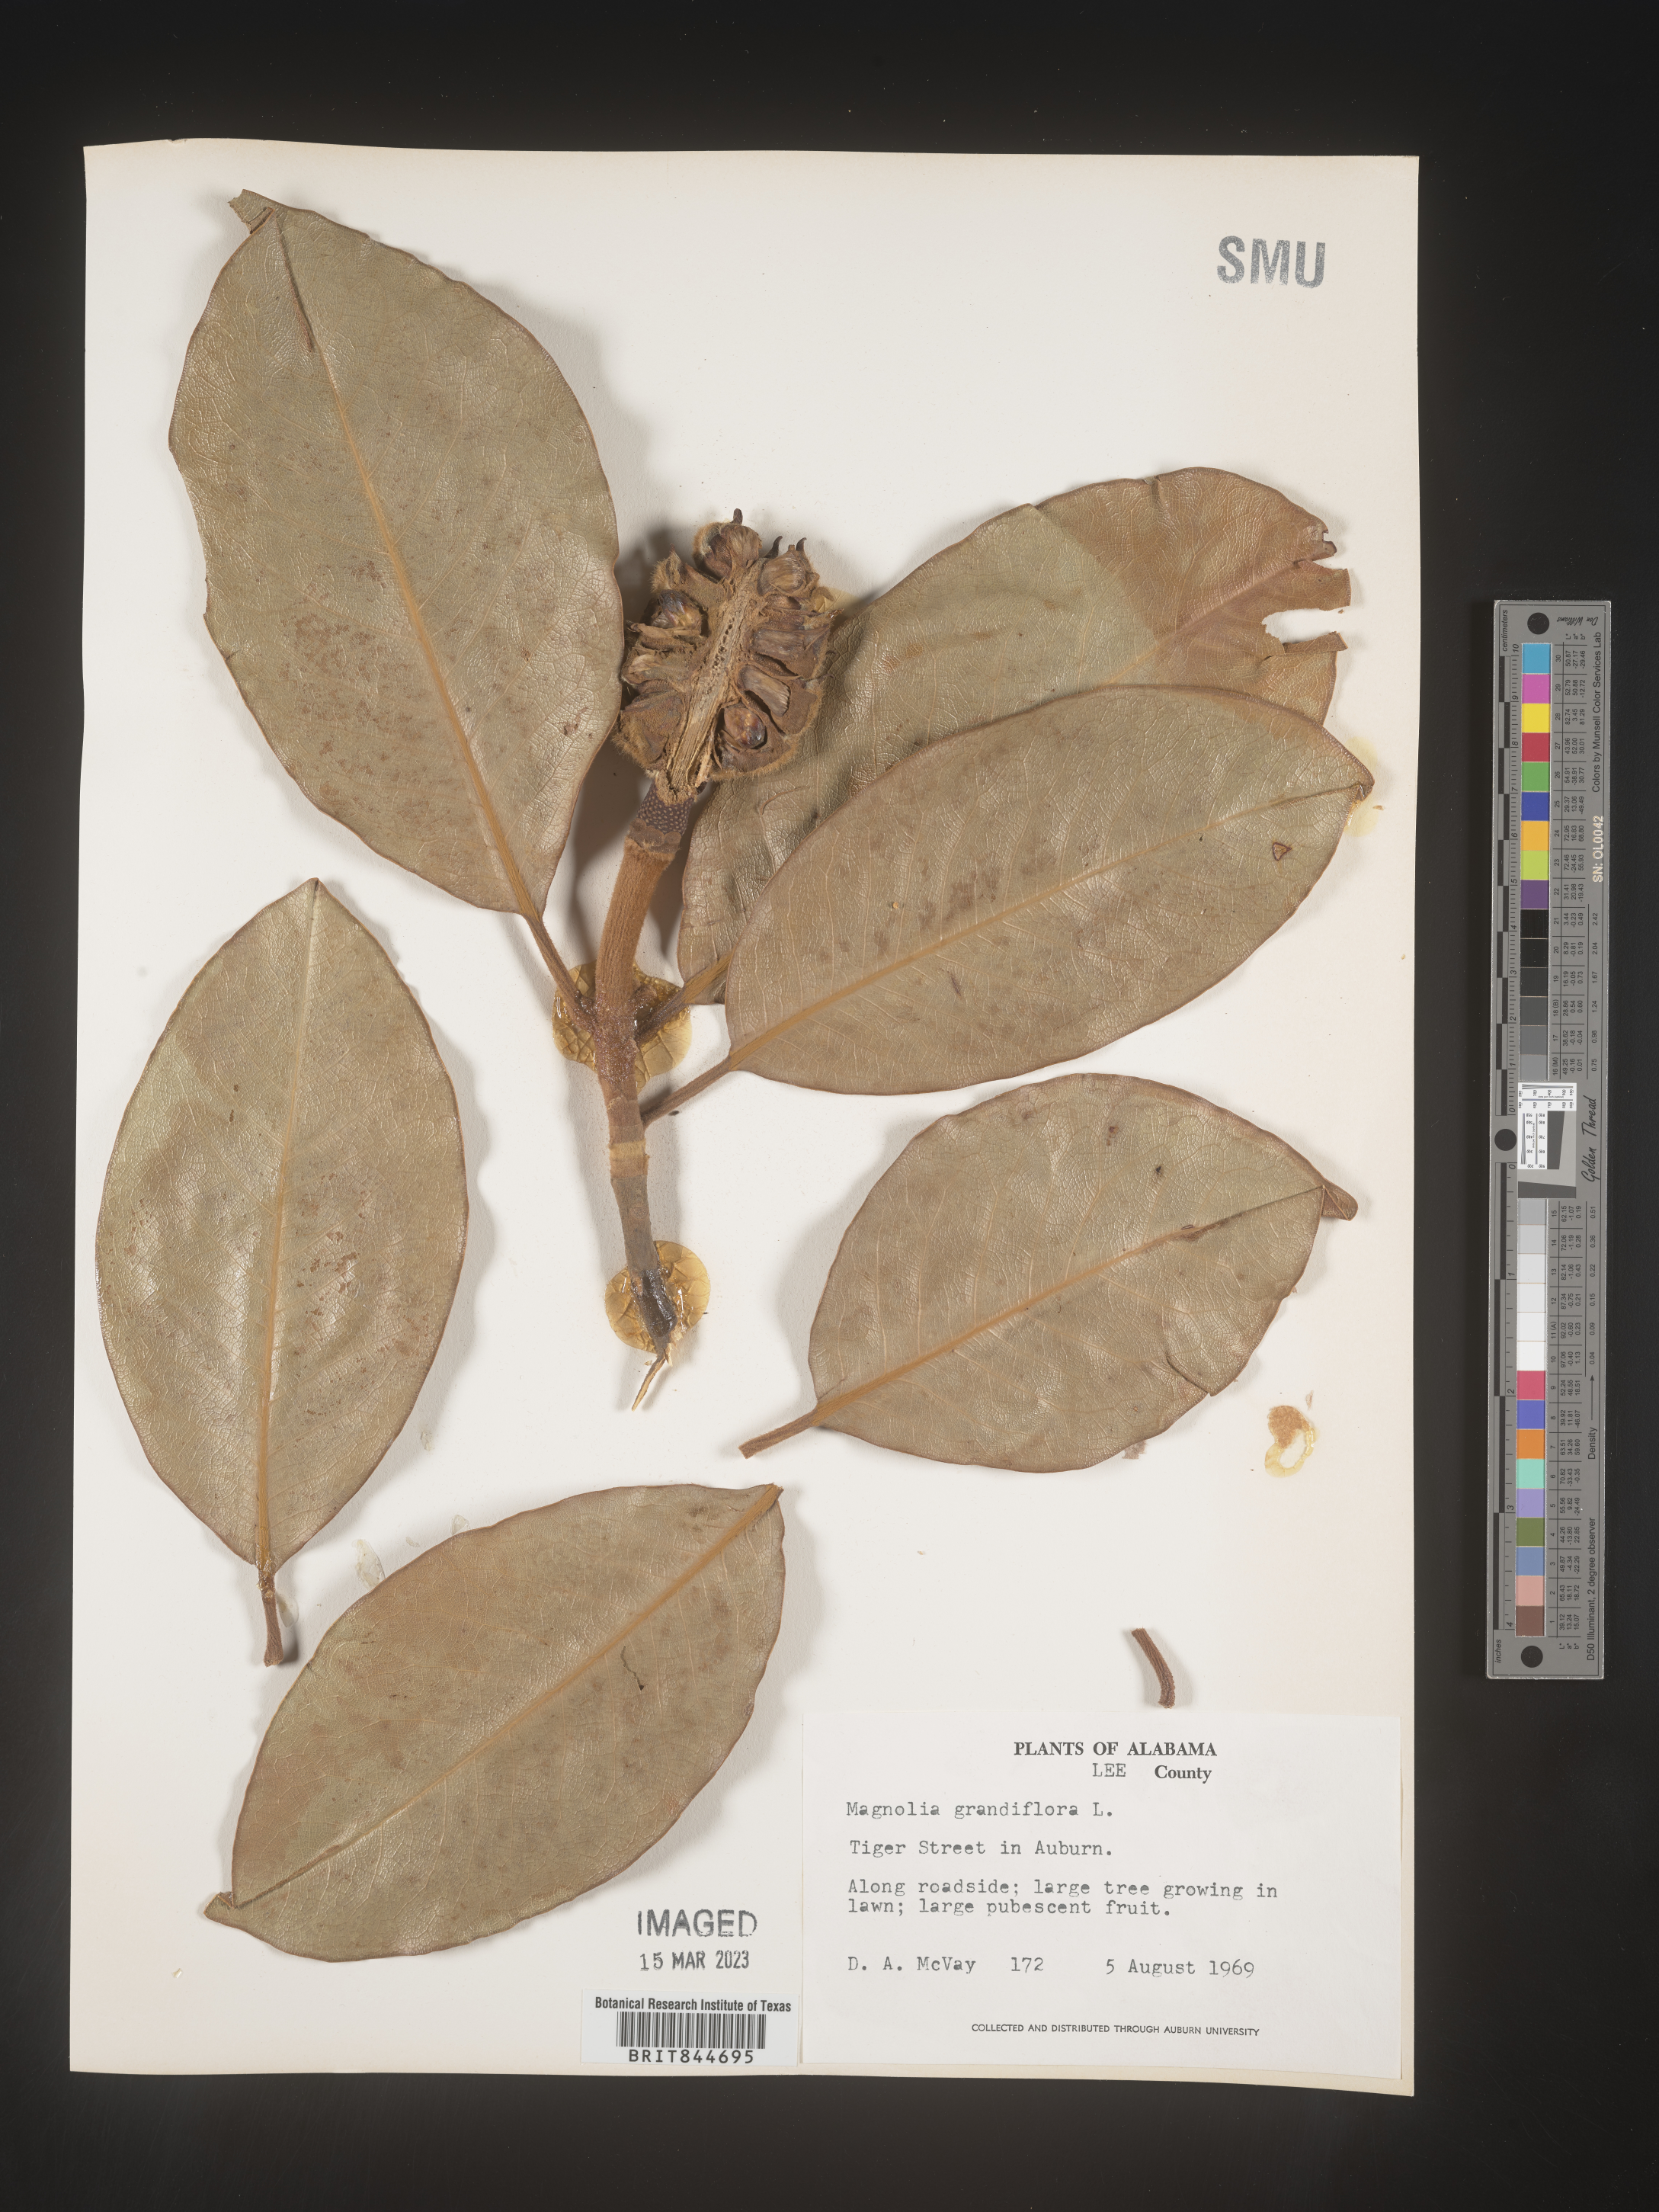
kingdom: Plantae
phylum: Tracheophyta
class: Magnoliopsida
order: Magnoliales
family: Magnoliaceae
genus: Magnolia
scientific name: Magnolia grandiflora
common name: Southern magnolia
